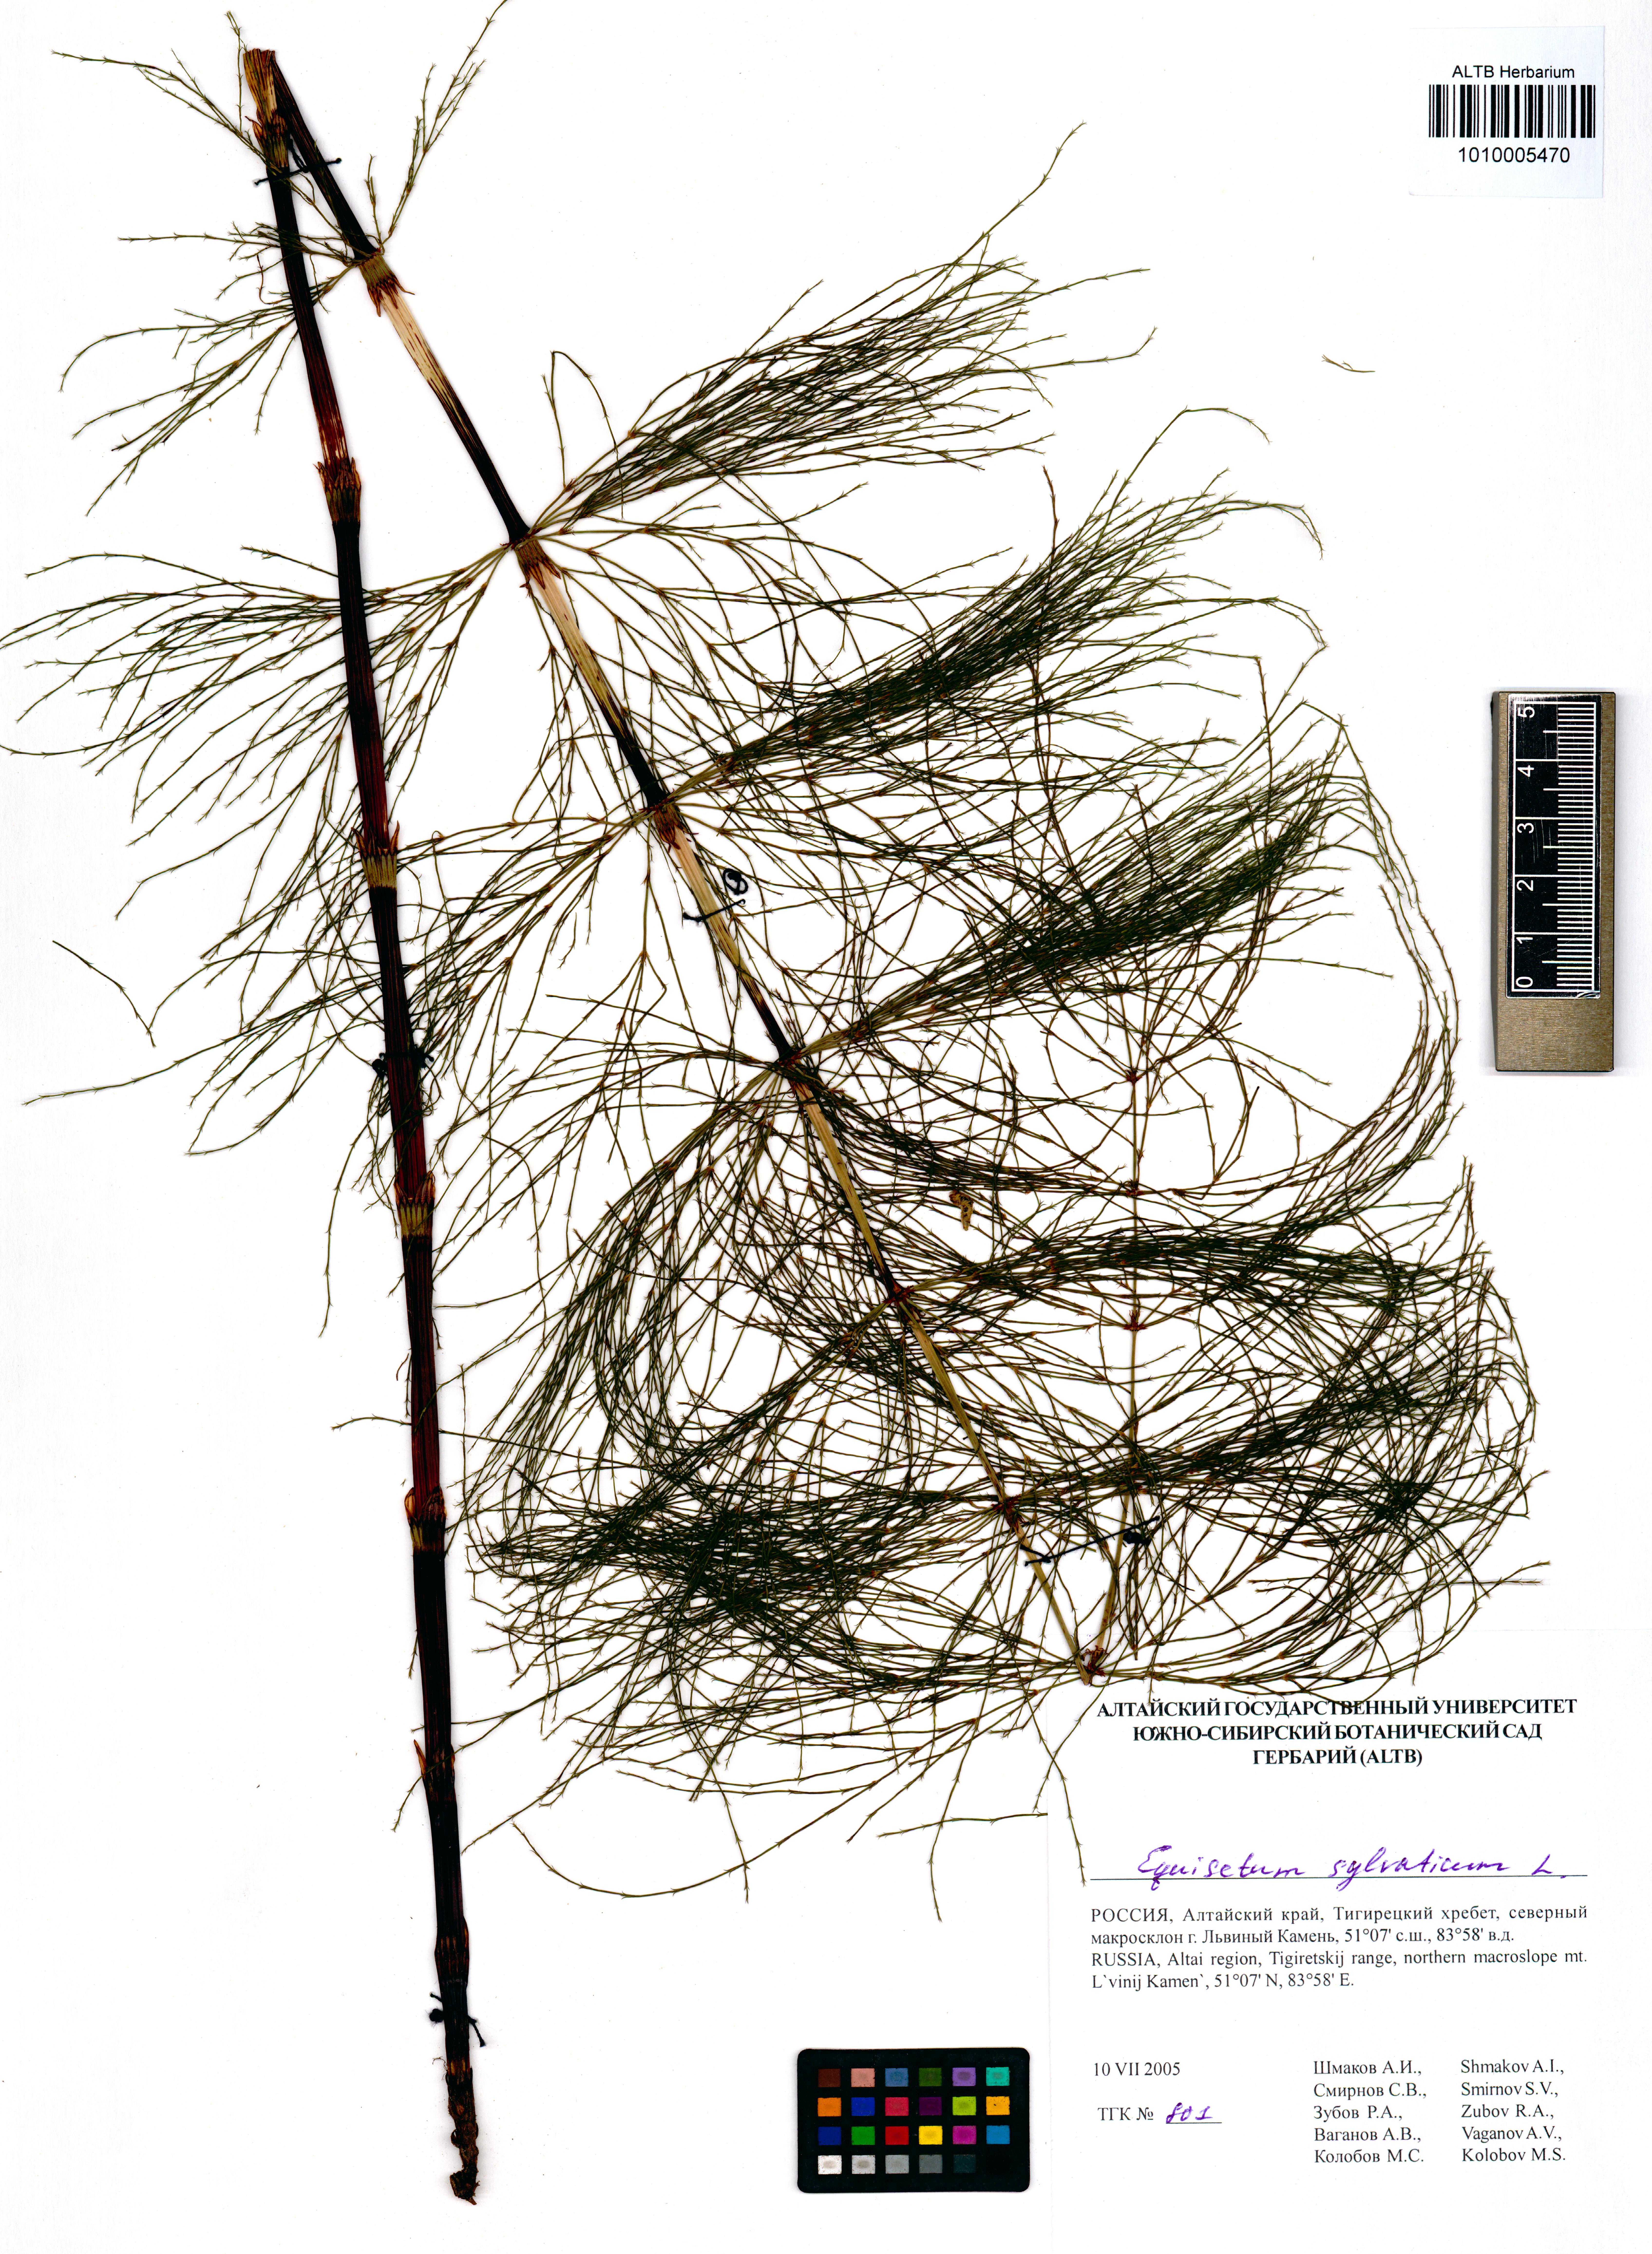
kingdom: Plantae
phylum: Tracheophyta
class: Polypodiopsida
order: Equisetales
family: Equisetaceae
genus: Equisetum
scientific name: Equisetum sylvaticum
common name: Wood horsetail
